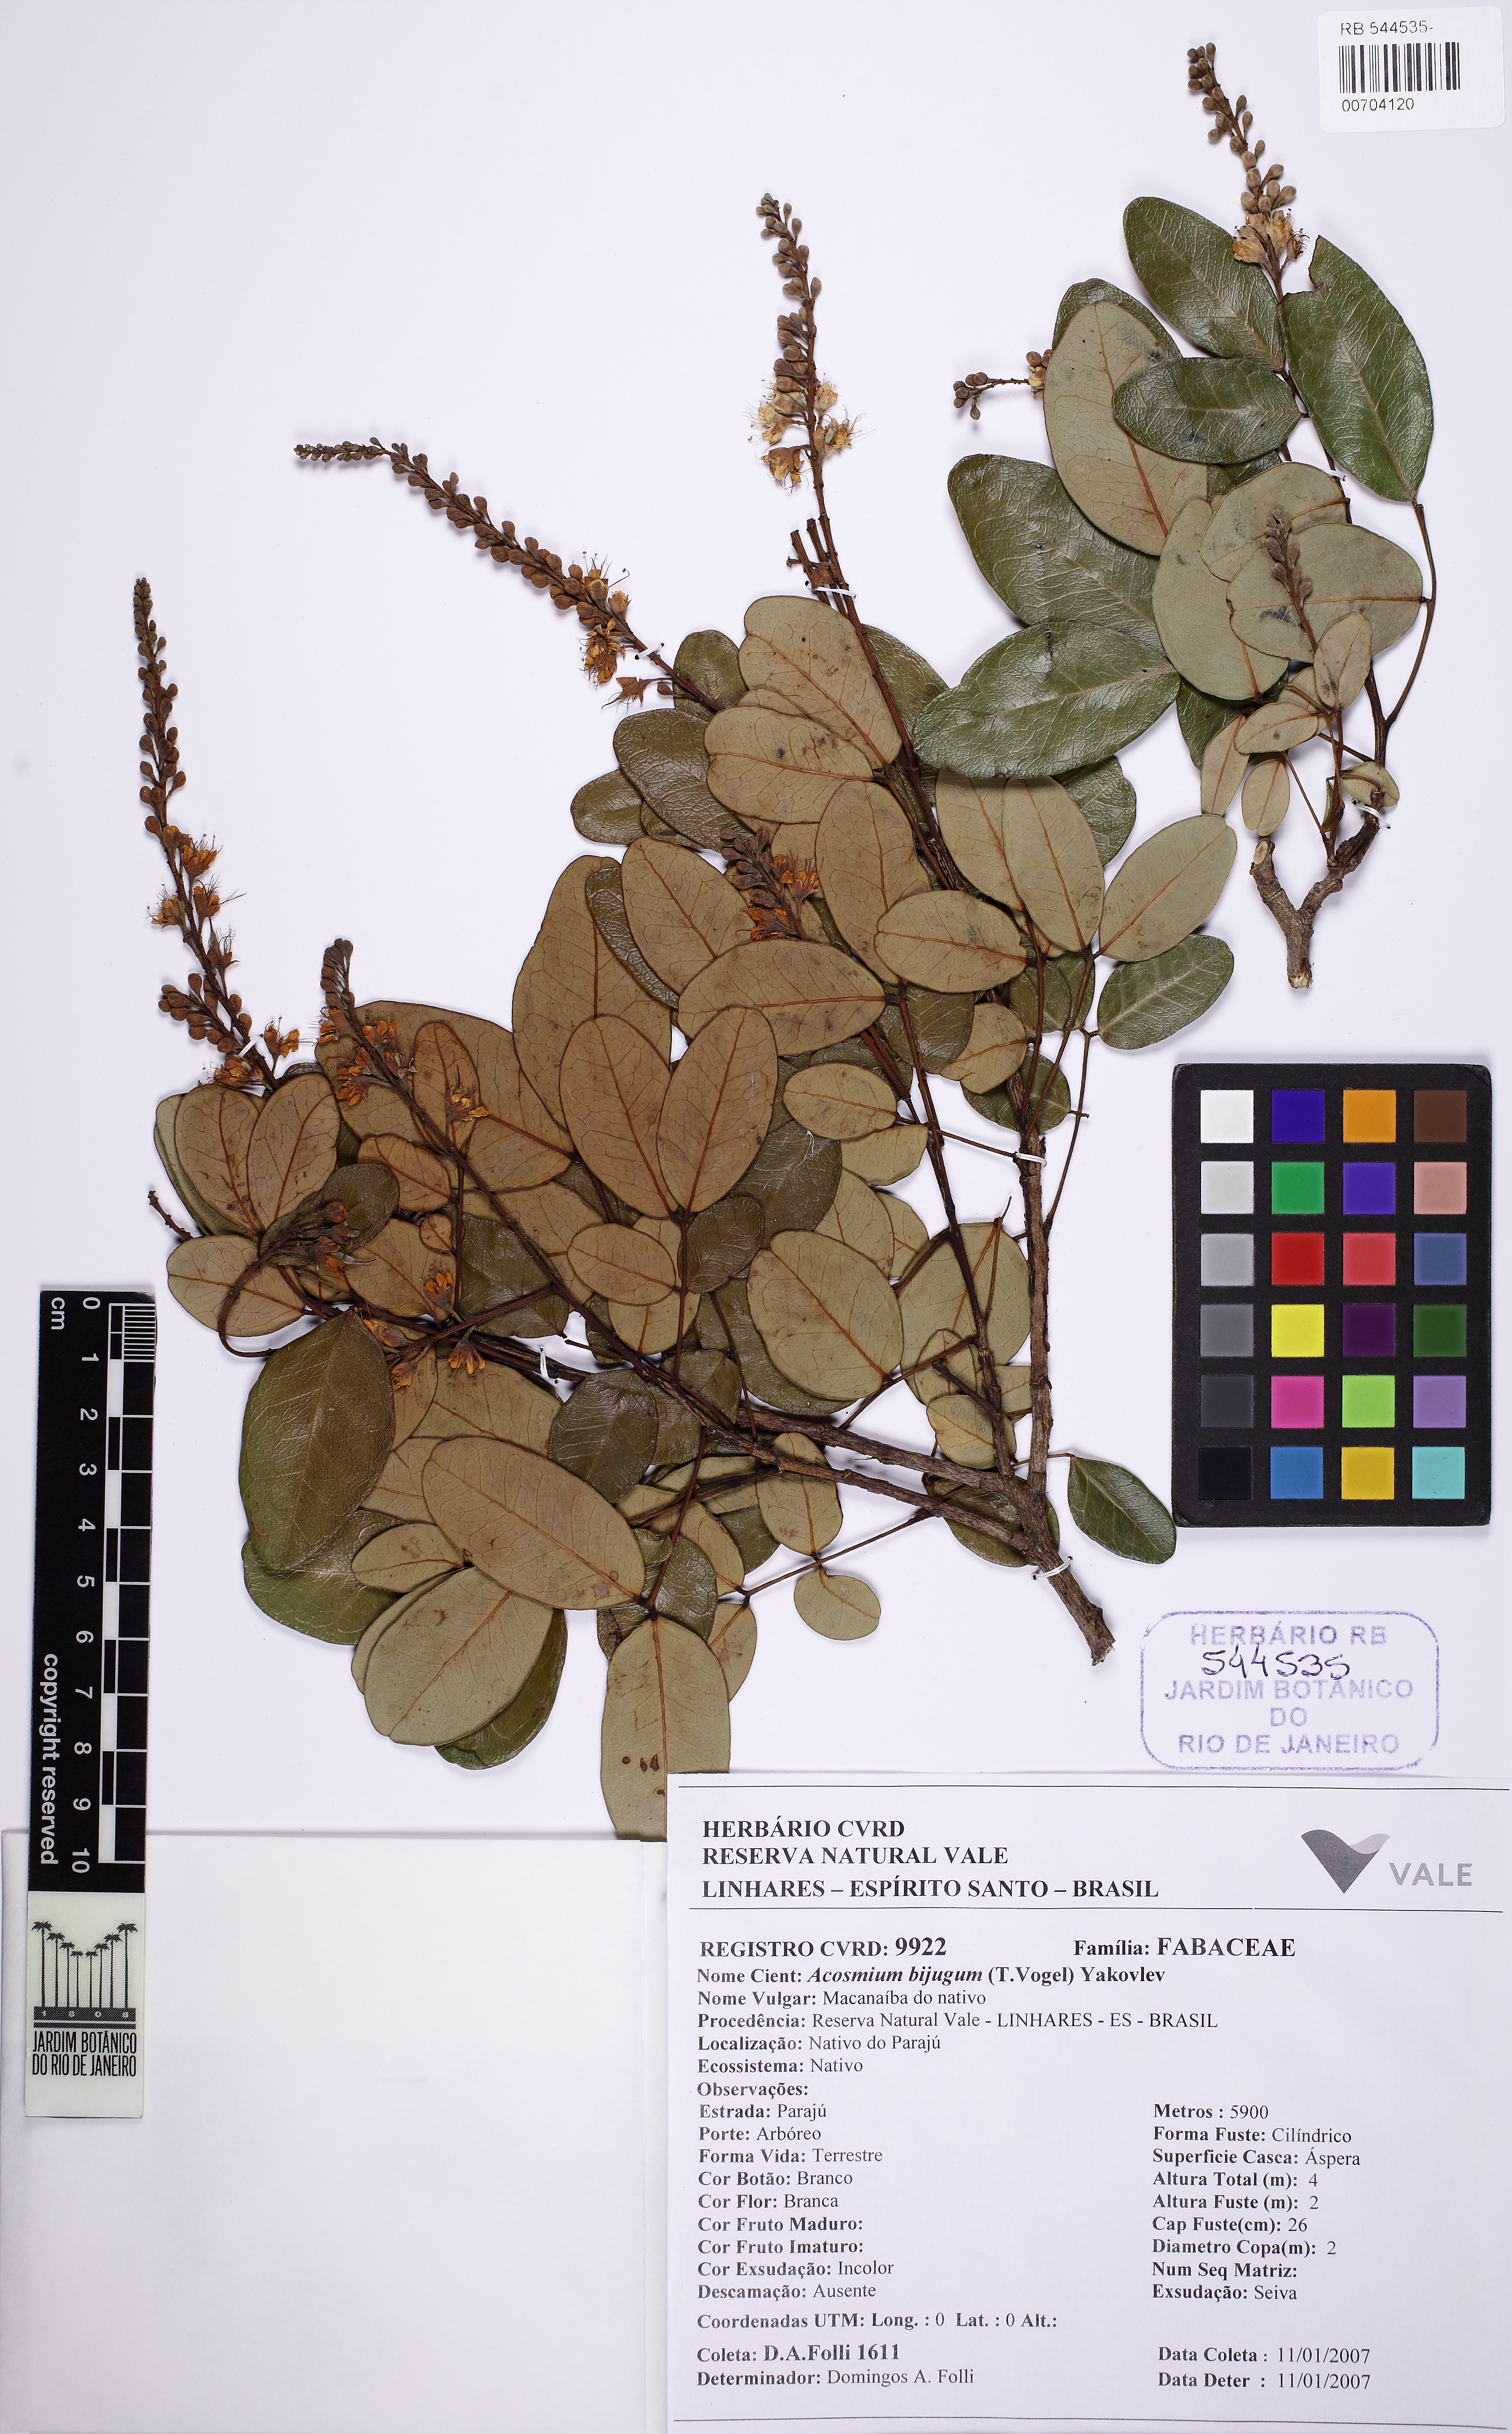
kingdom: Plantae
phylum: Tracheophyta
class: Magnoliopsida
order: Fabales
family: Fabaceae
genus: Leptolobium
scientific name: Leptolobium bijugum
